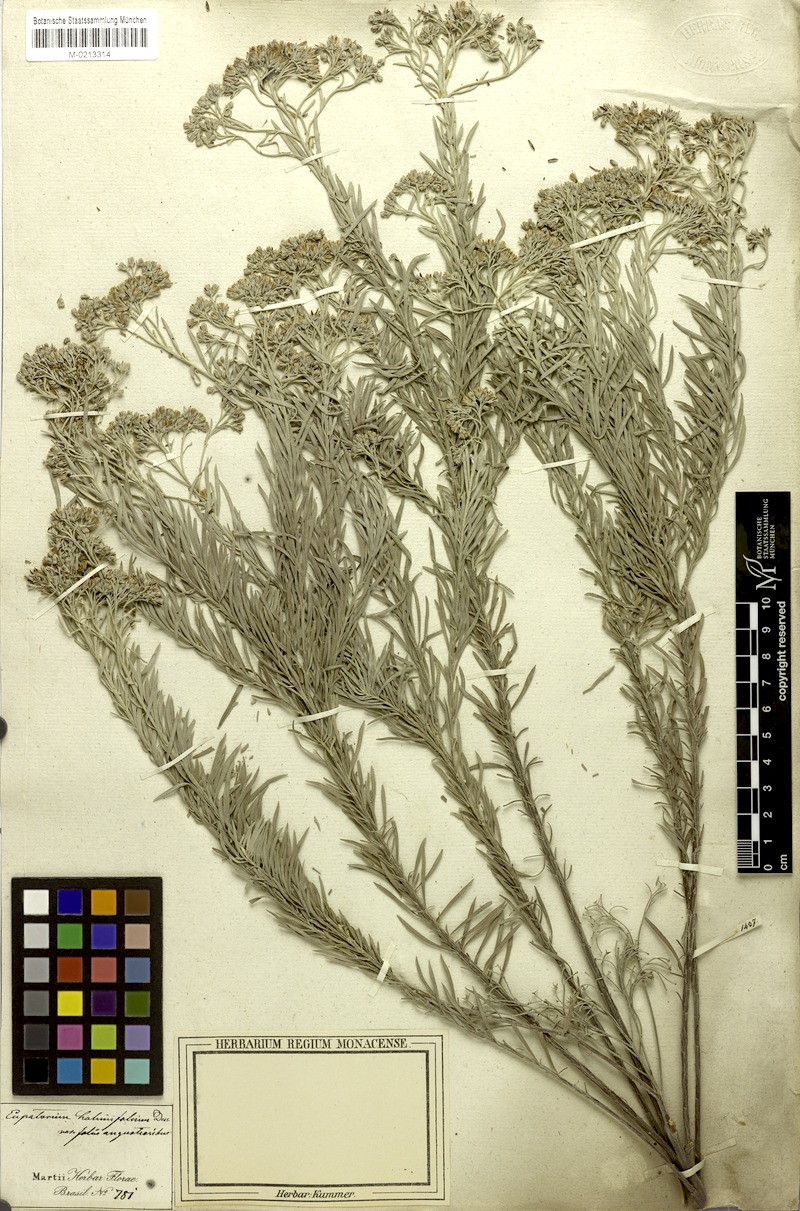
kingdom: Plantae
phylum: Tracheophyta
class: Magnoliopsida
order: Asterales
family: Asteraceae
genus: Disynaphia
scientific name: Disynaphia spathulata
